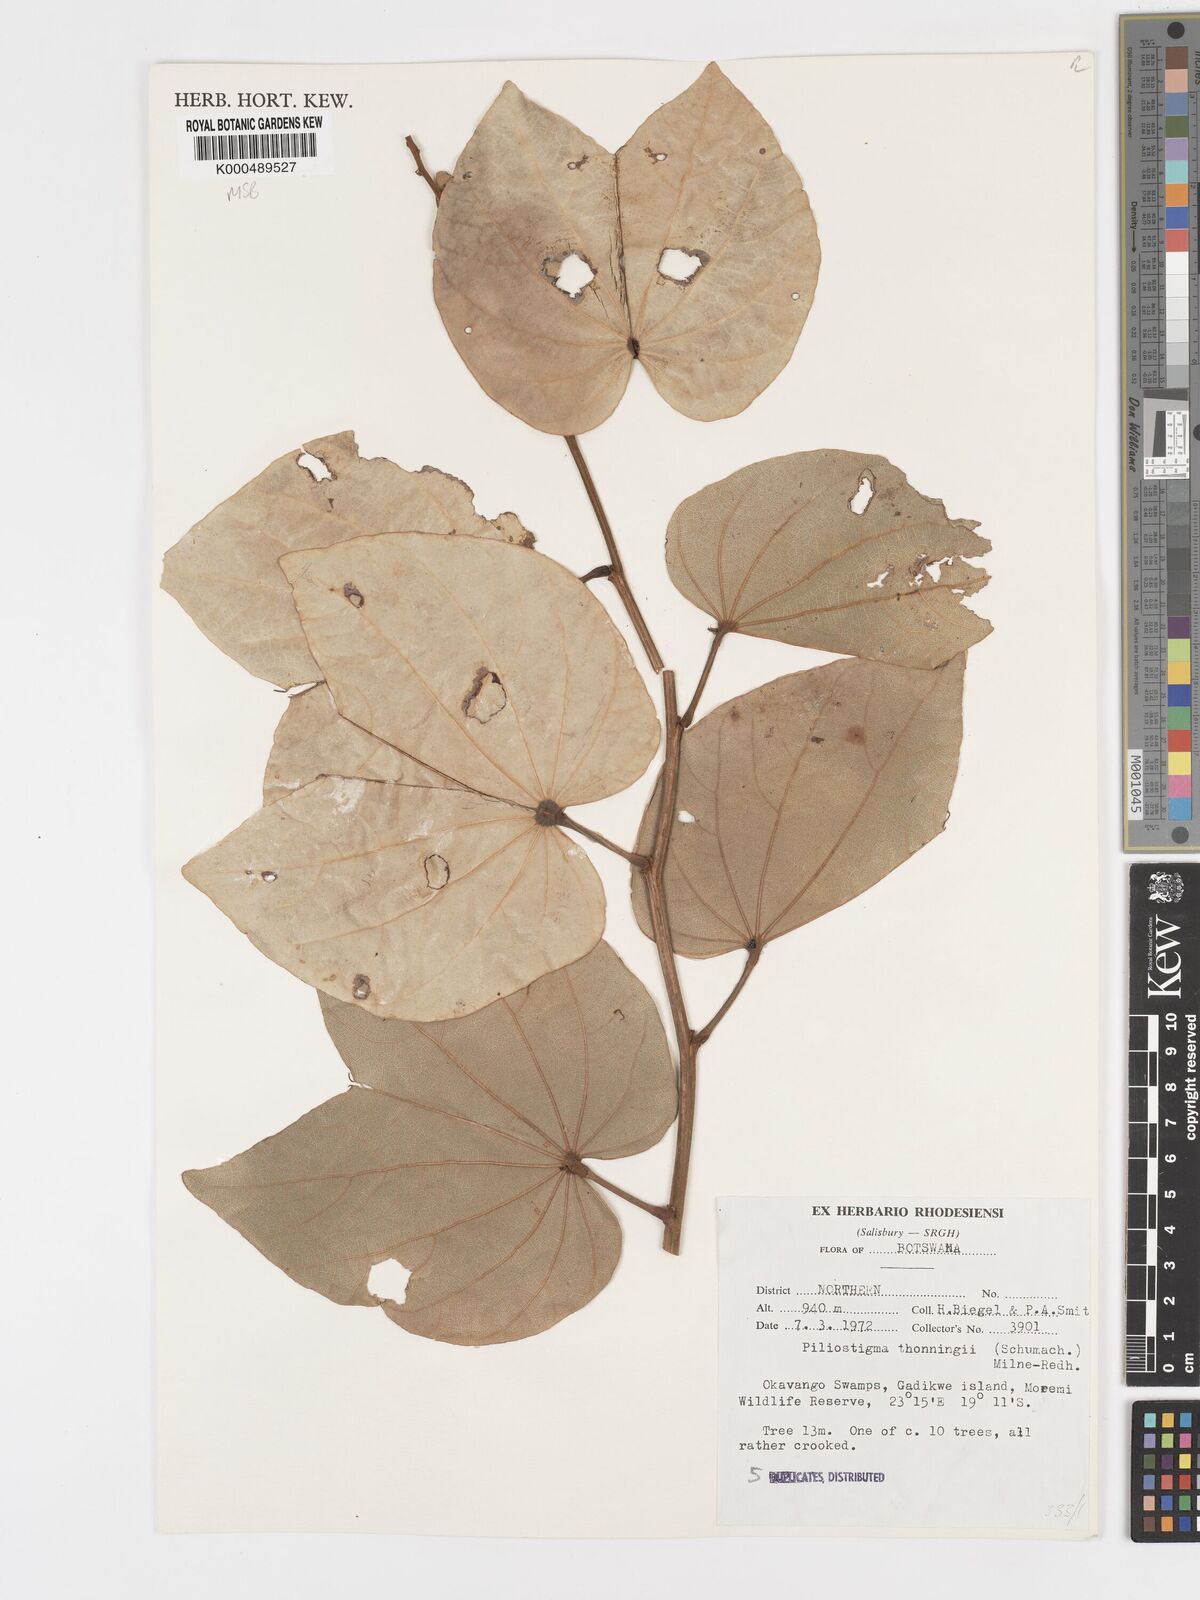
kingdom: Plantae
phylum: Tracheophyta
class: Magnoliopsida
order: Fabales
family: Fabaceae
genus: Piliostigma
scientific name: Piliostigma thonningii
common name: Kao
